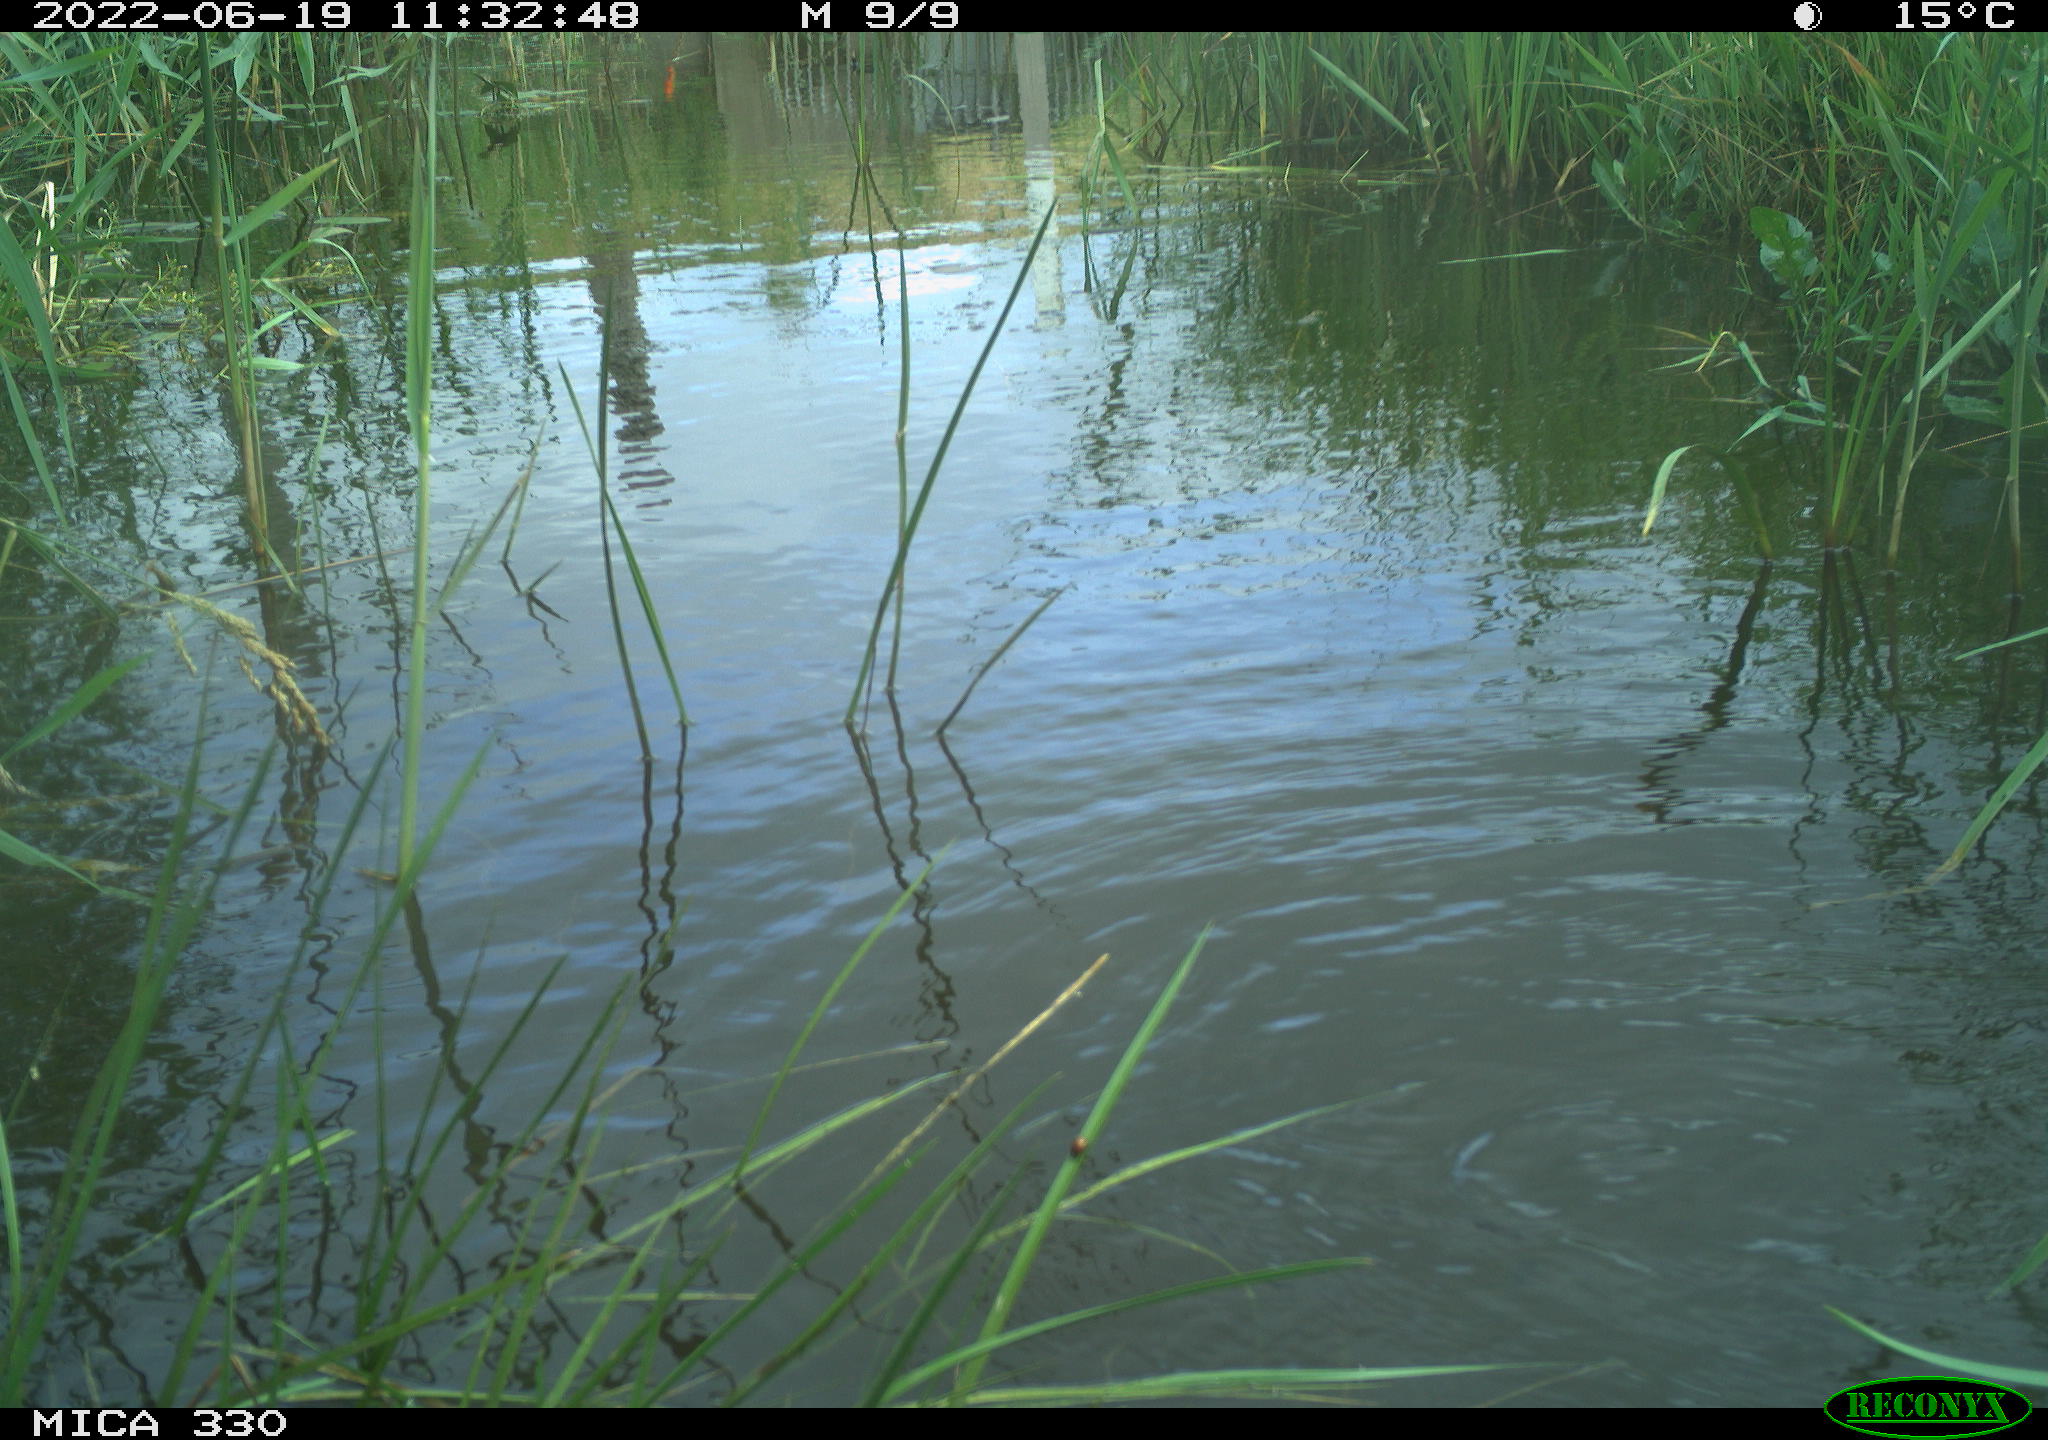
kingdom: Animalia
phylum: Chordata
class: Aves
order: Anseriformes
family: Anatidae
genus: Mareca
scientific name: Mareca strepera
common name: Gadwall
